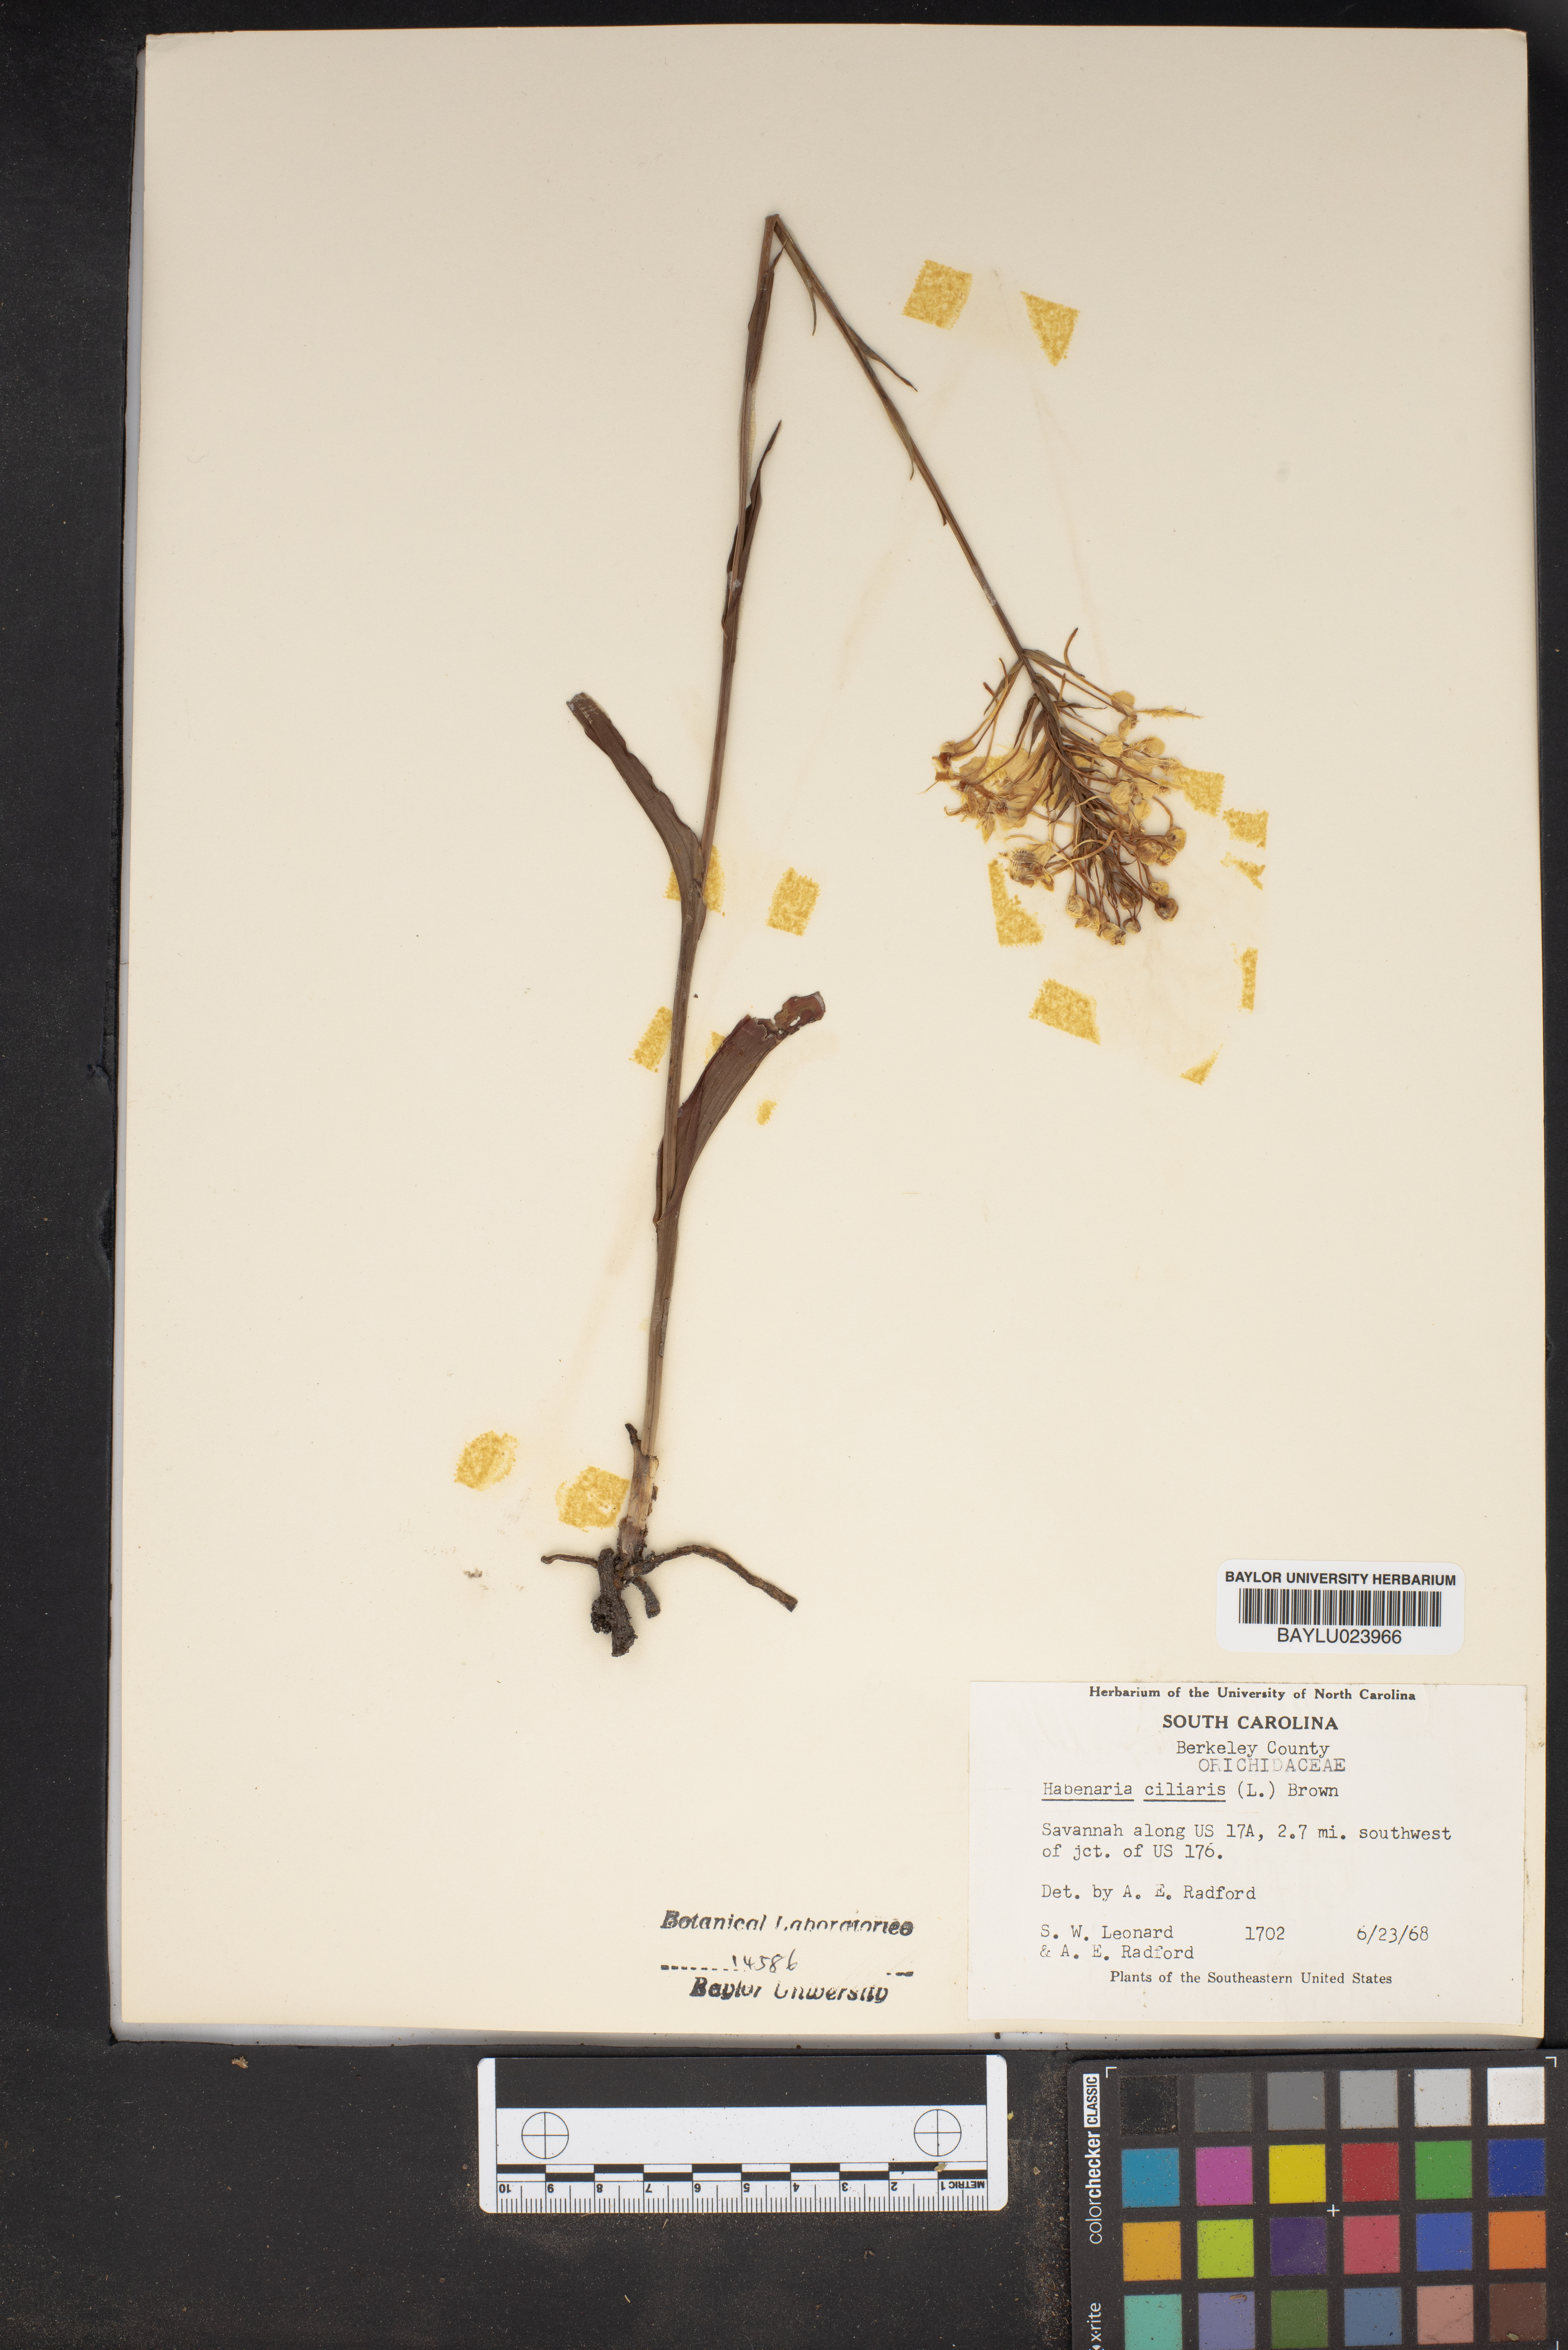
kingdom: Plantae
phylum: Tracheophyta
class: Liliopsida
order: Asparagales
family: Orchidaceae
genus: Platanthera
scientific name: Platanthera ciliaris
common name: Yellow fringed orchid
